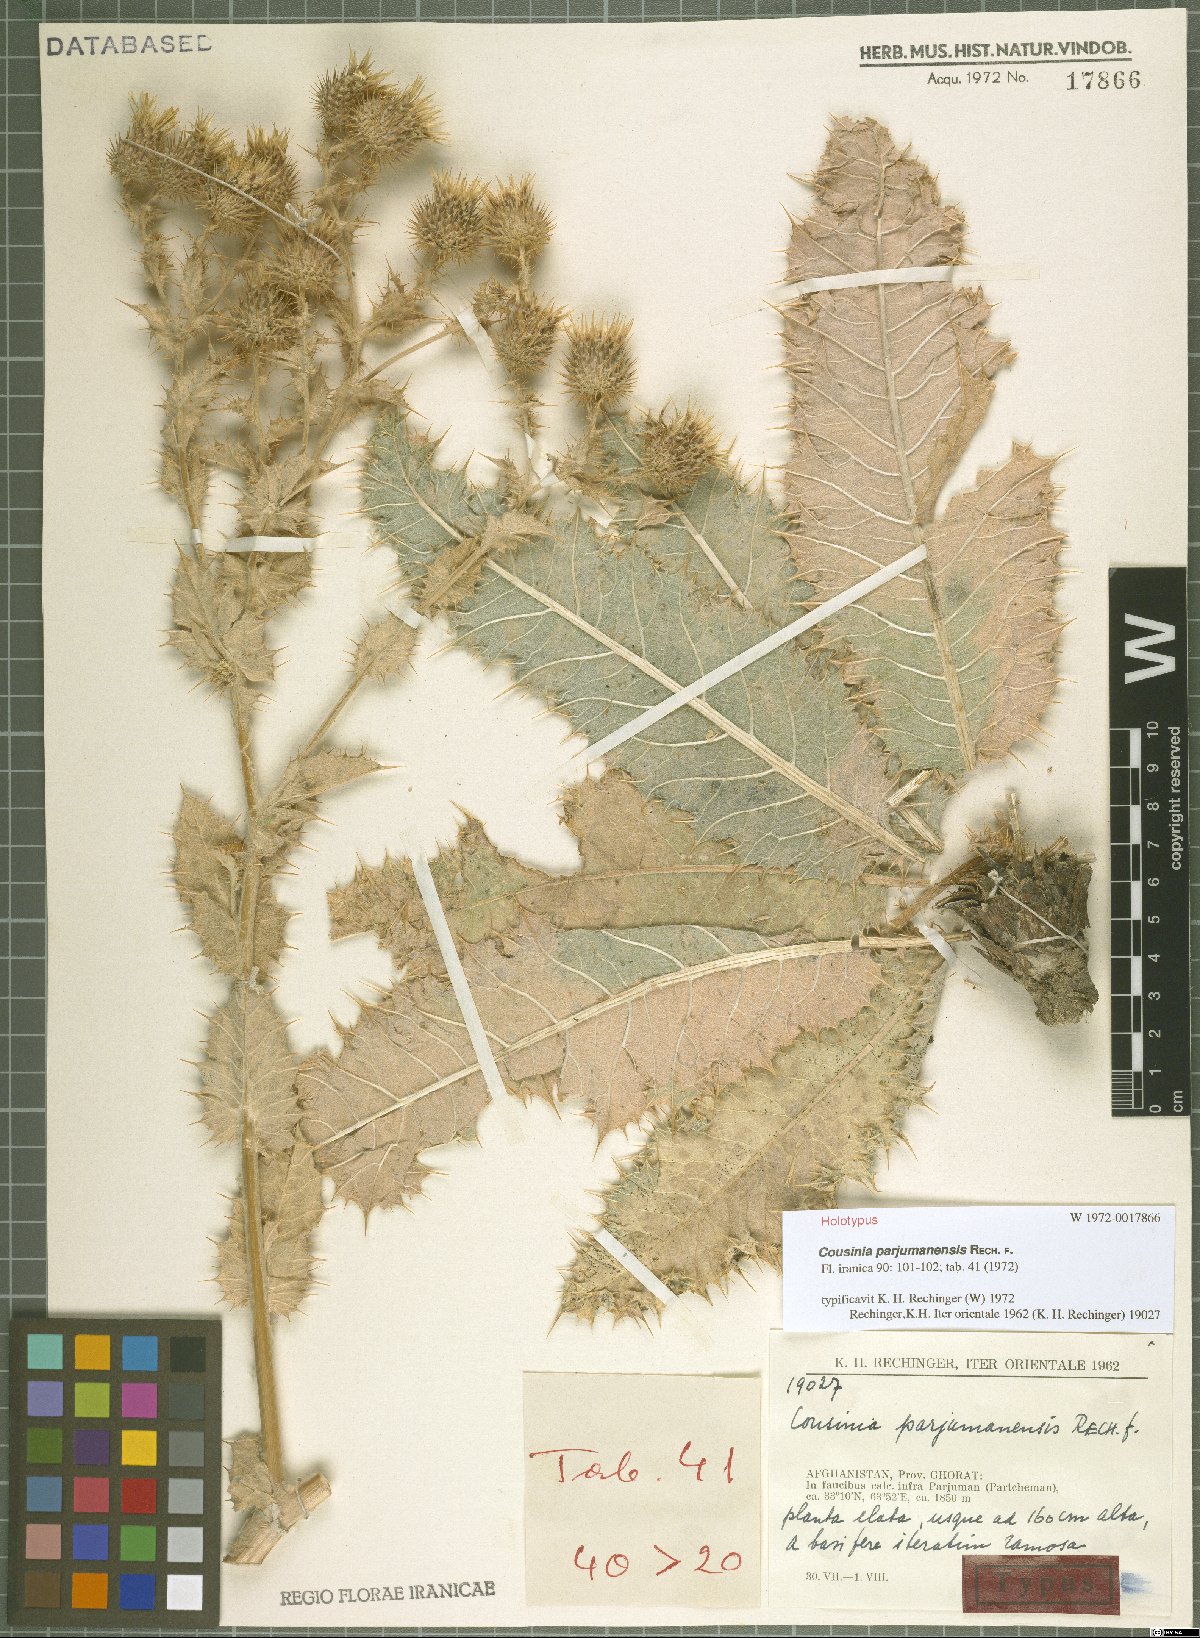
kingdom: Plantae
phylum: Tracheophyta
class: Magnoliopsida
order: Asterales
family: Asteraceae
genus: Cousinia
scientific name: Cousinia parjumanensis
